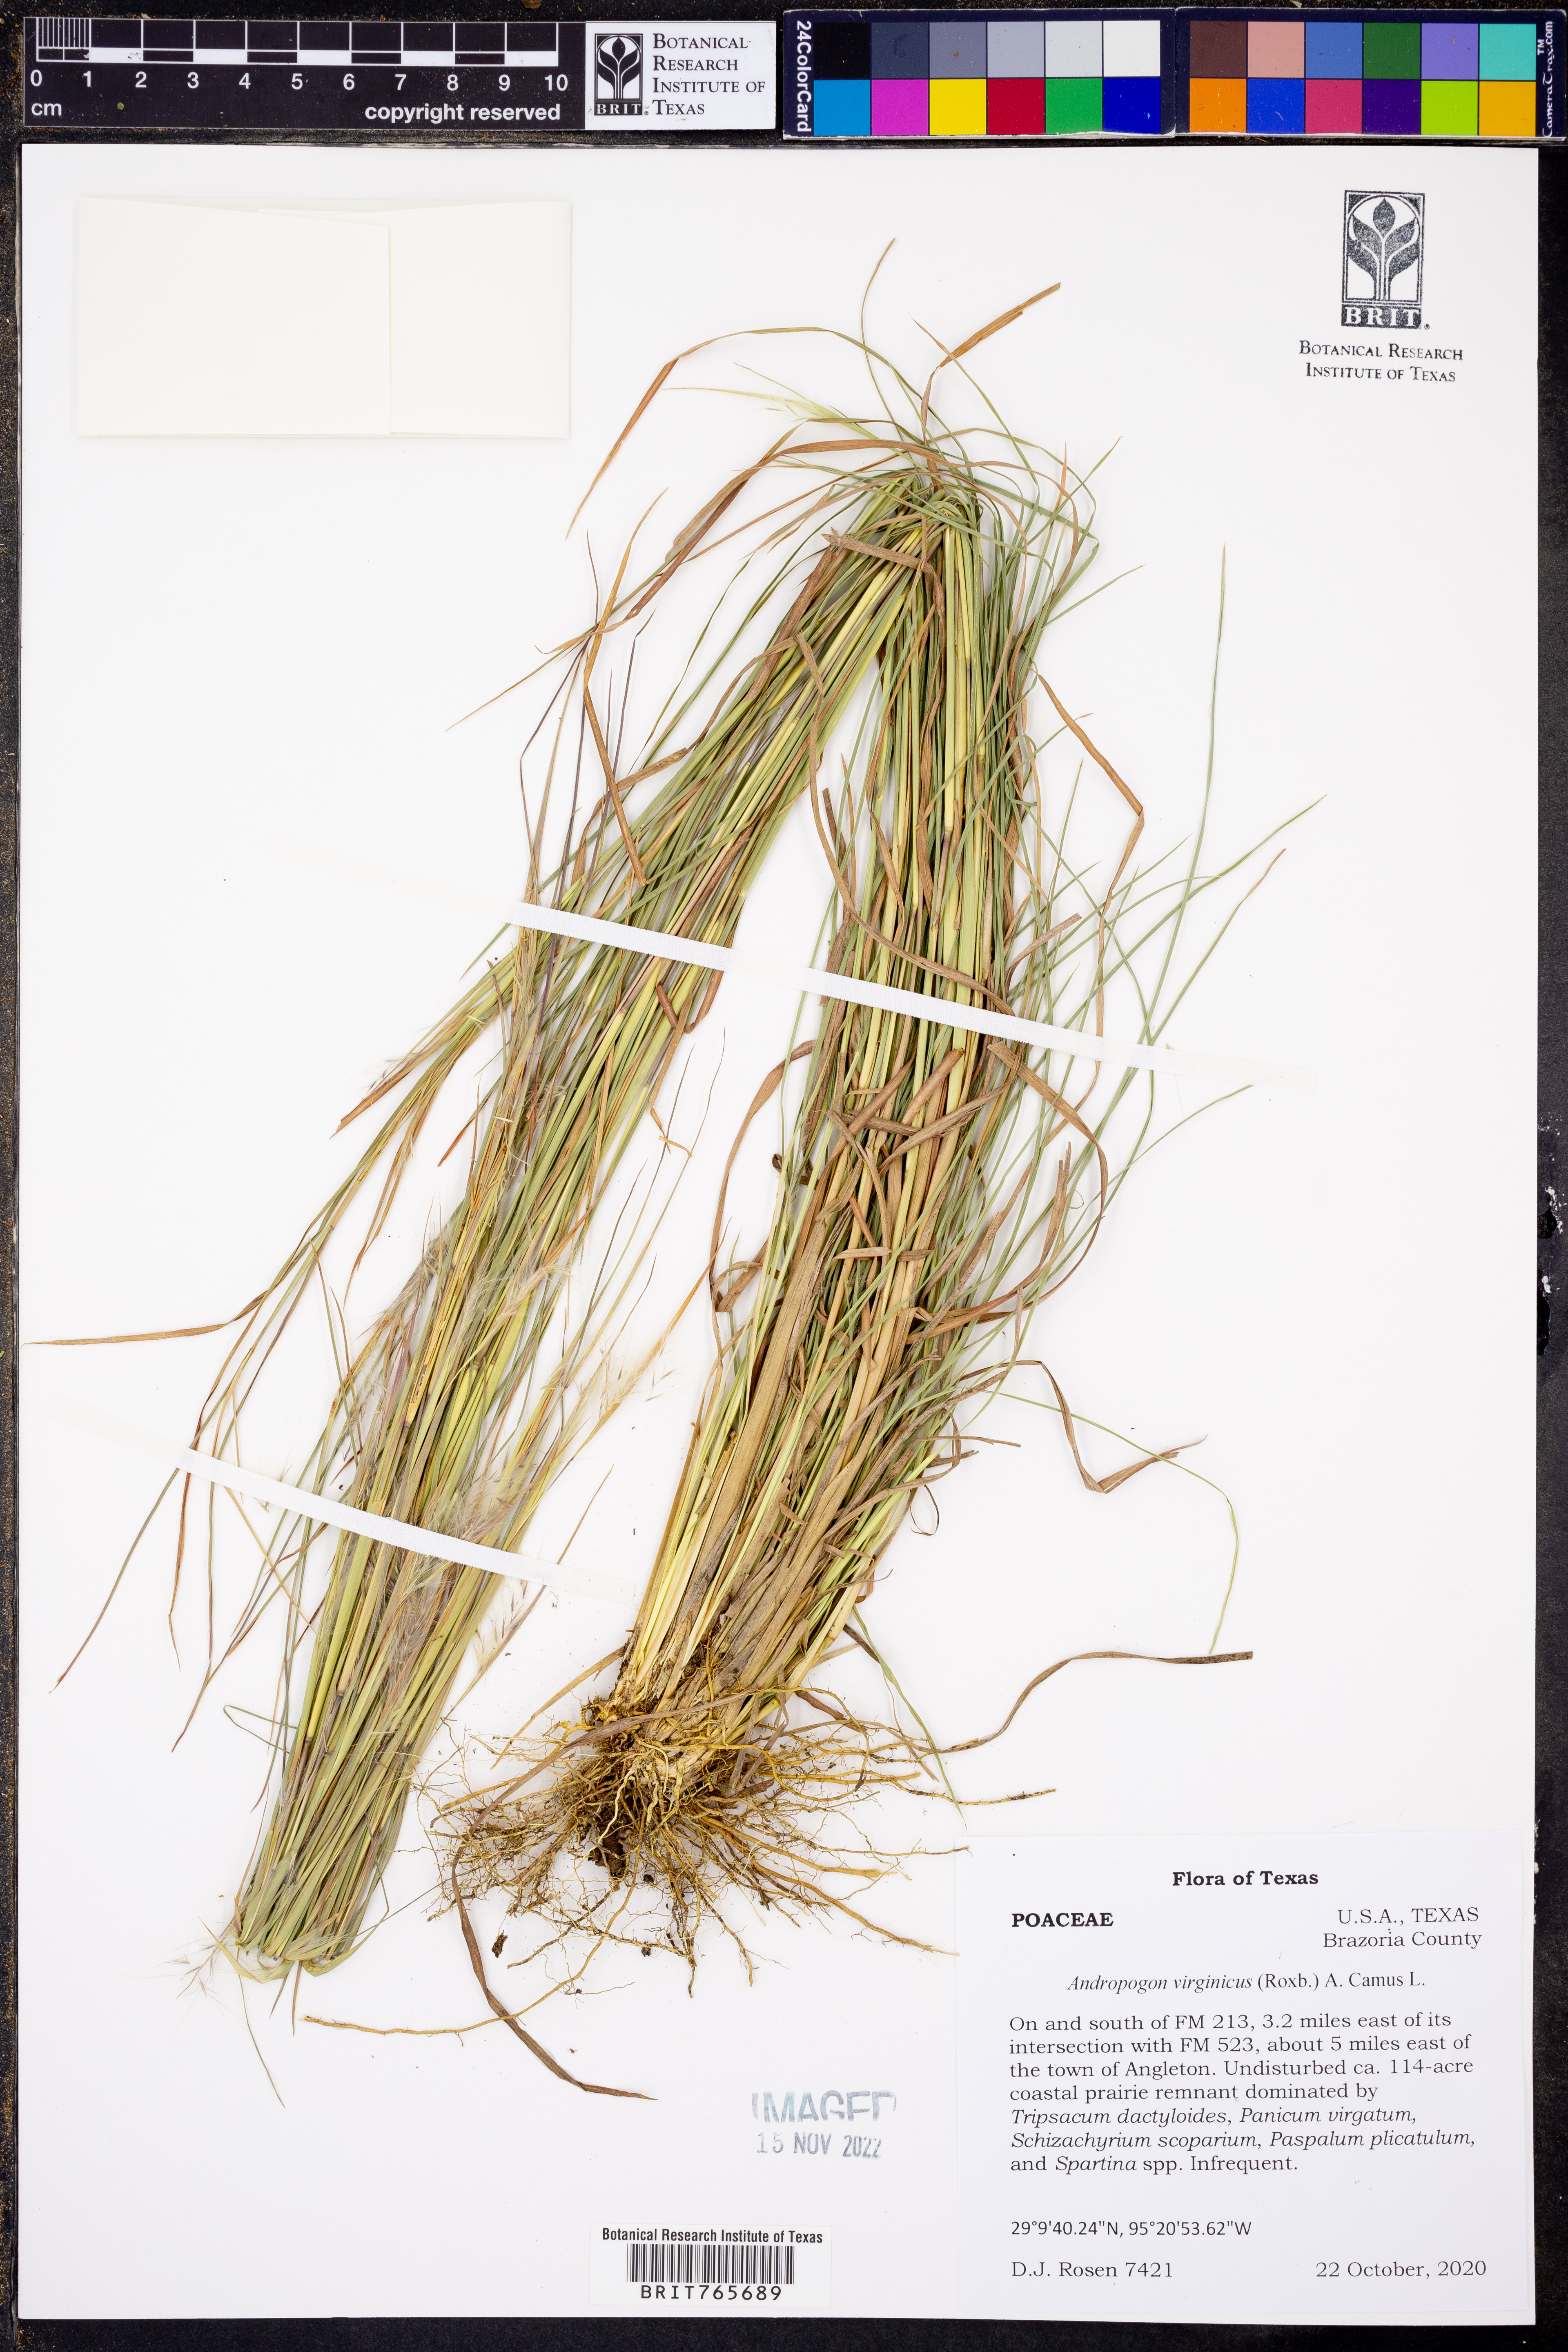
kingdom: Plantae
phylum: Tracheophyta
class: Liliopsida
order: Poales
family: Poaceae
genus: Andropogon
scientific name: Andropogon virginicus
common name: Broomsedge bluestem
